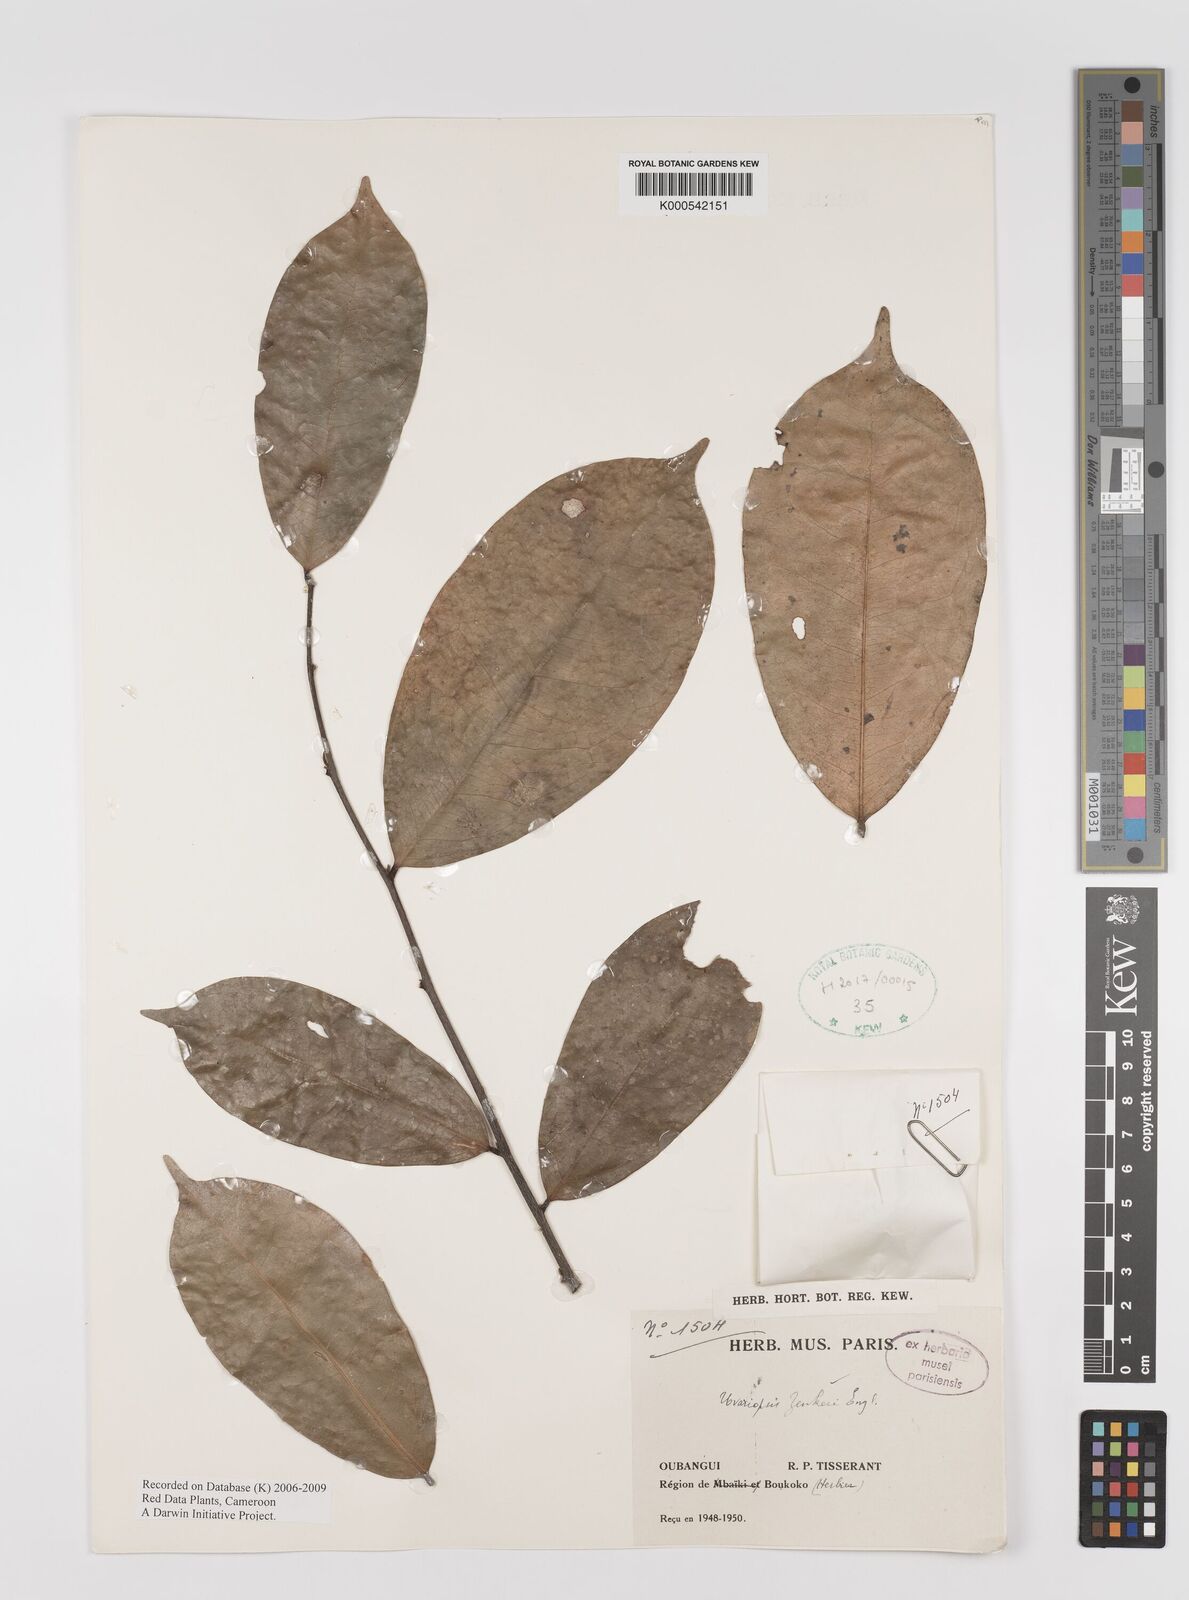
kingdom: Plantae
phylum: Tracheophyta
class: Magnoliopsida
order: Magnoliales
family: Annonaceae
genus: Uvariopsis
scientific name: Uvariopsis zenkeri
